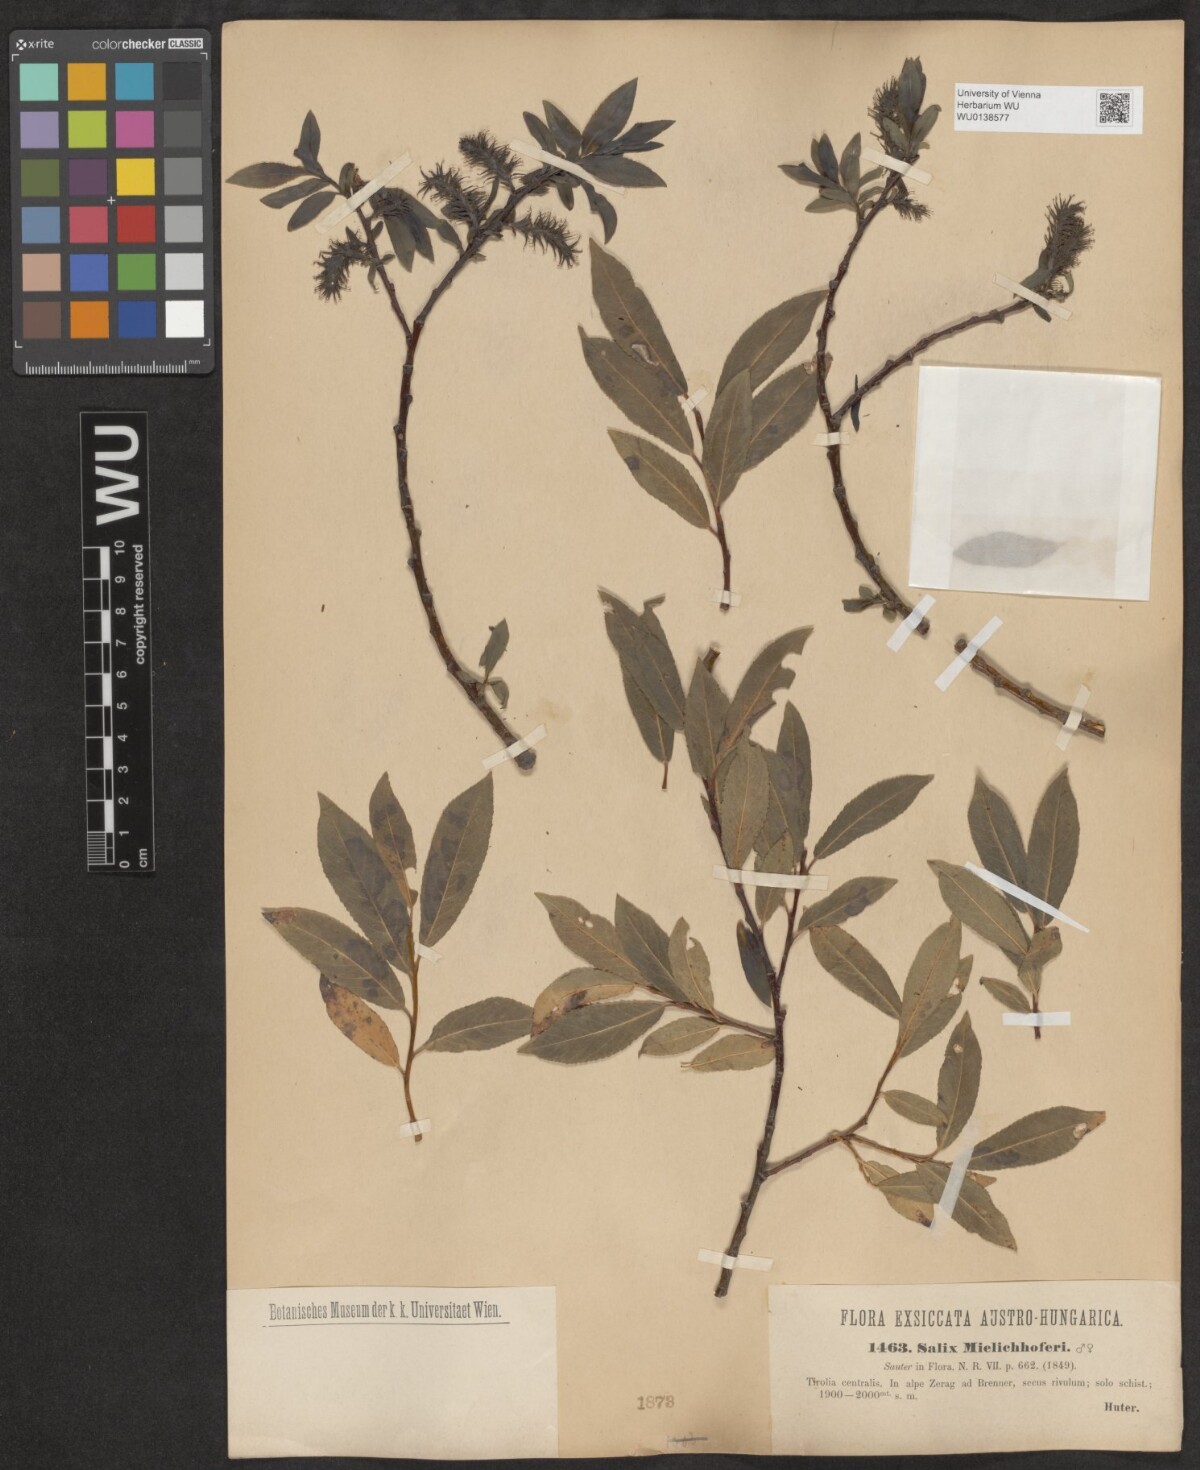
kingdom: Plantae
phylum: Tracheophyta
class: Magnoliopsida
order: Malpighiales
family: Salicaceae
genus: Salix
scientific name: Salix mielichhoferi
